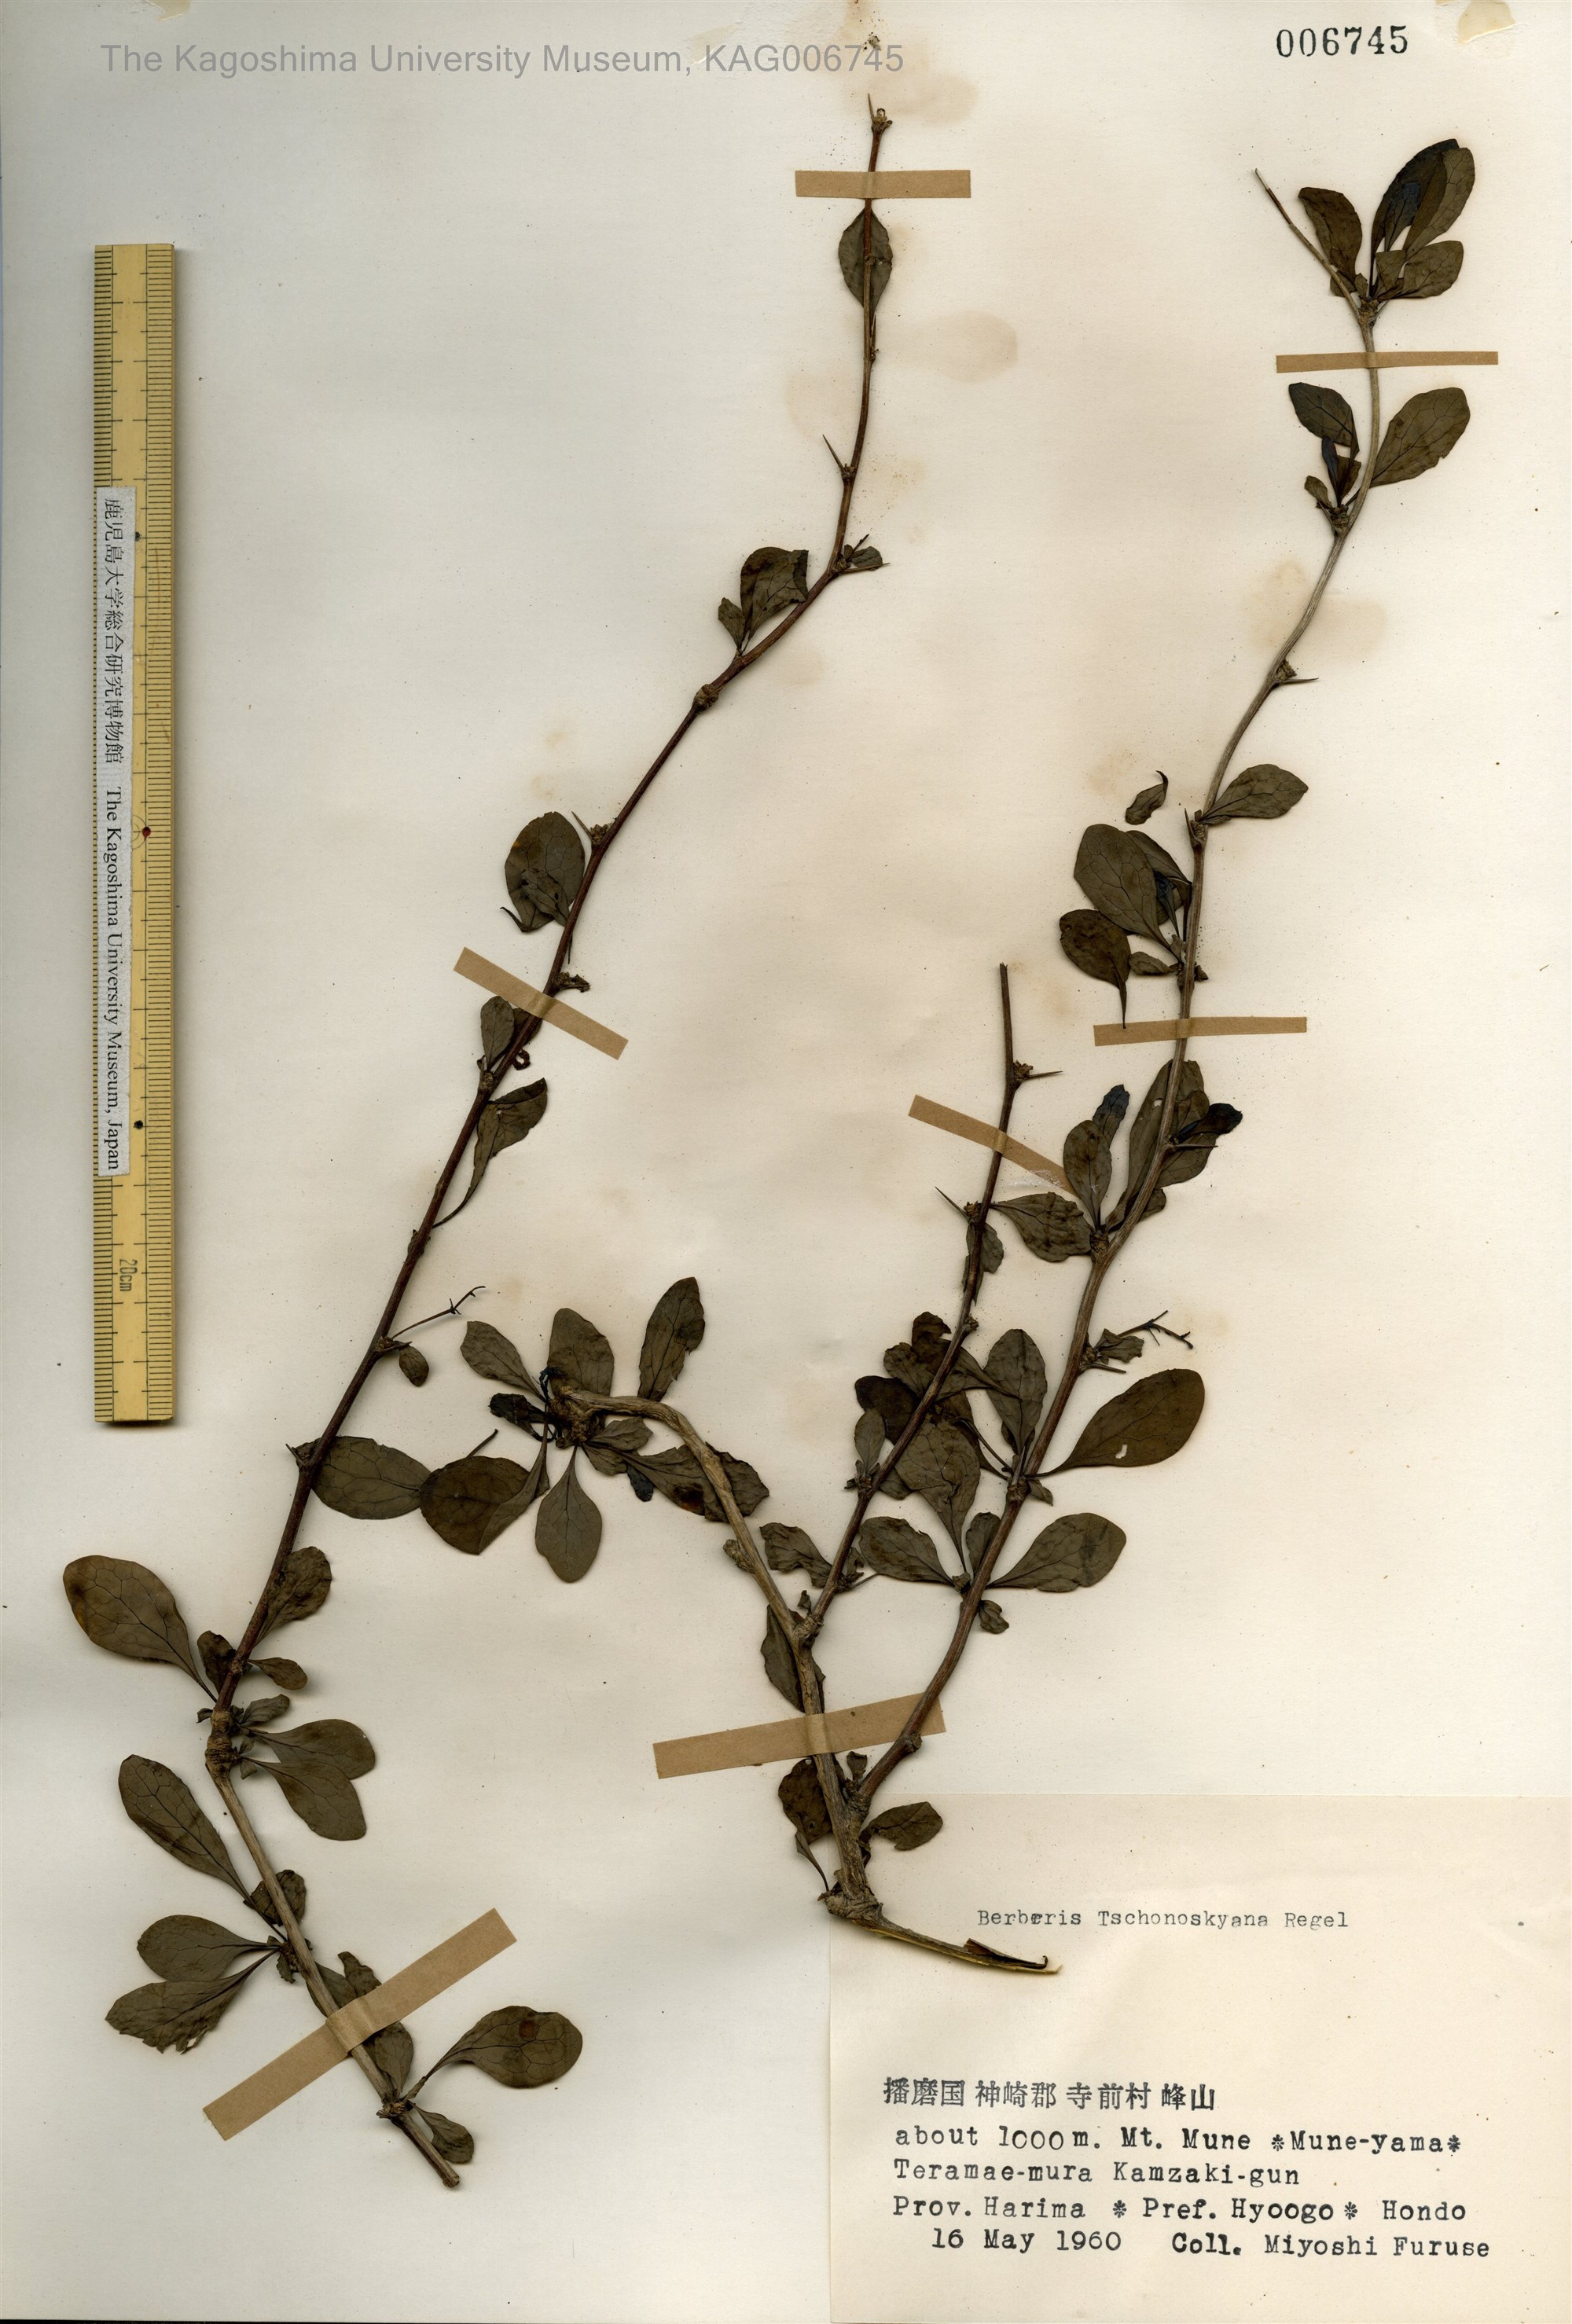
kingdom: Plantae
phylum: Tracheophyta
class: Magnoliopsida
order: Ranunculales
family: Berberidaceae
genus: Berberis
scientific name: Berberis tschonoskyana
